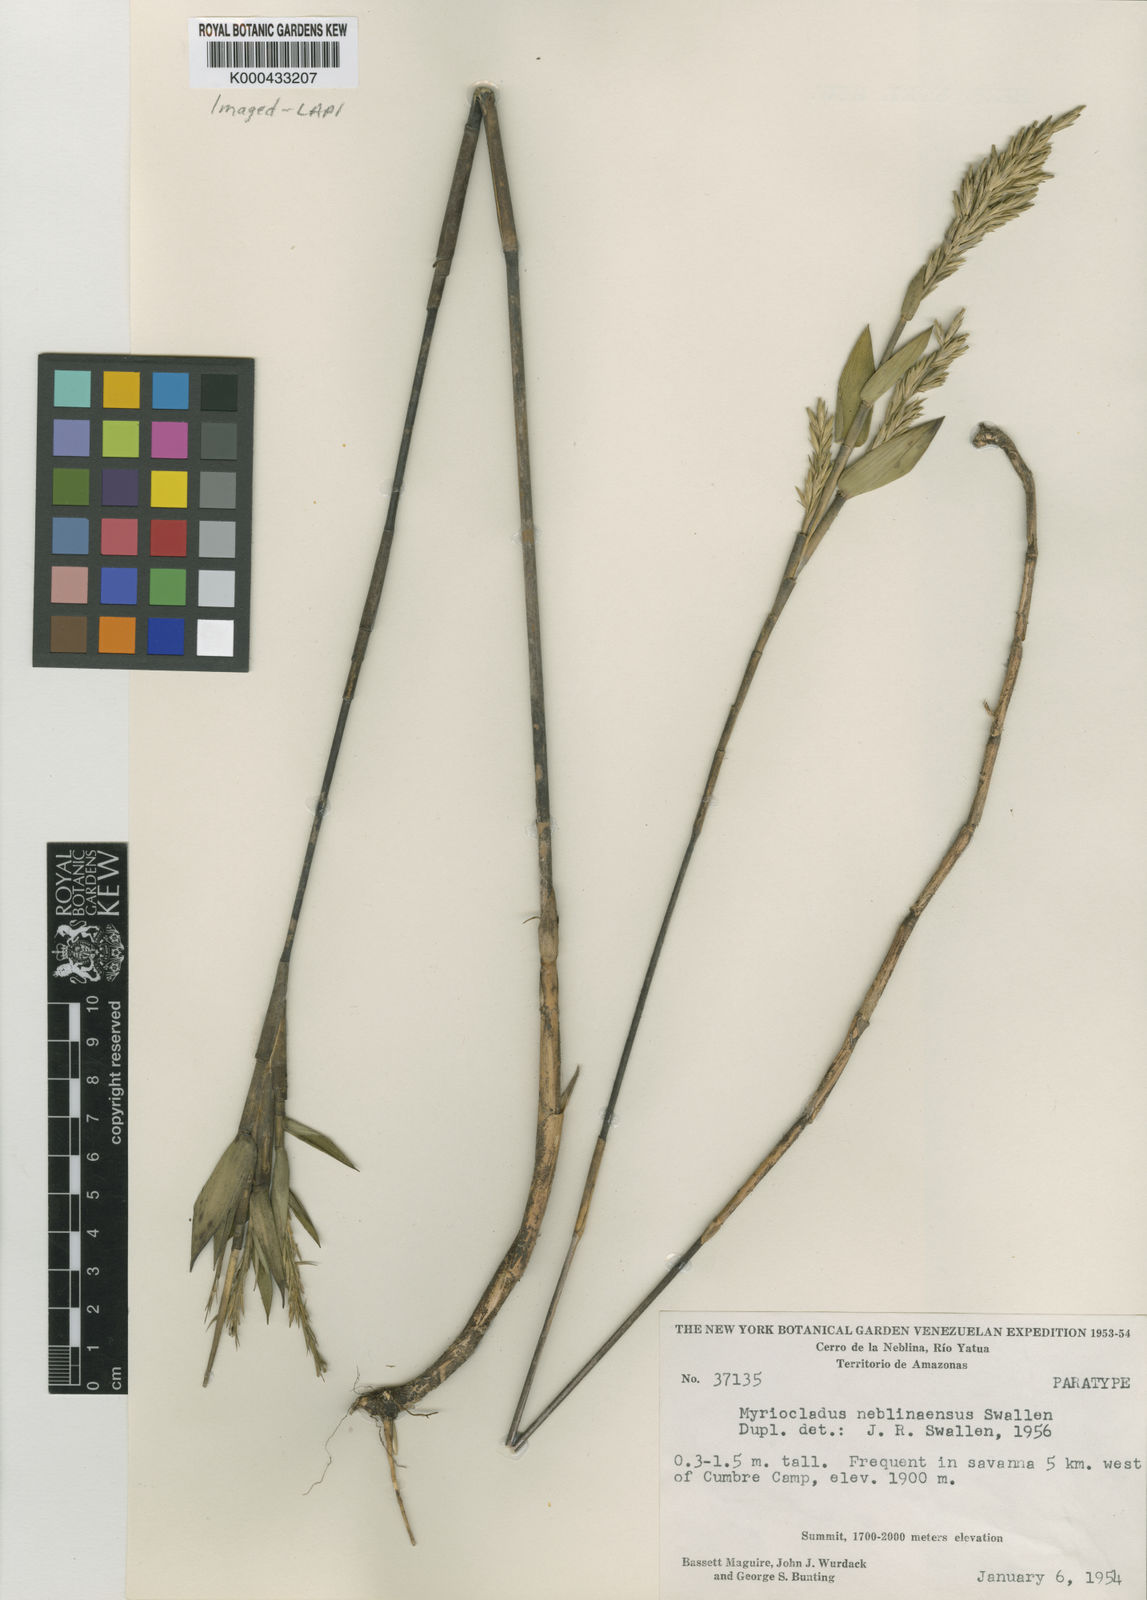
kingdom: Plantae
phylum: Tracheophyta
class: Liliopsida
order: Poales
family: Poaceae
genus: Myriocladus
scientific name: Myriocladus
